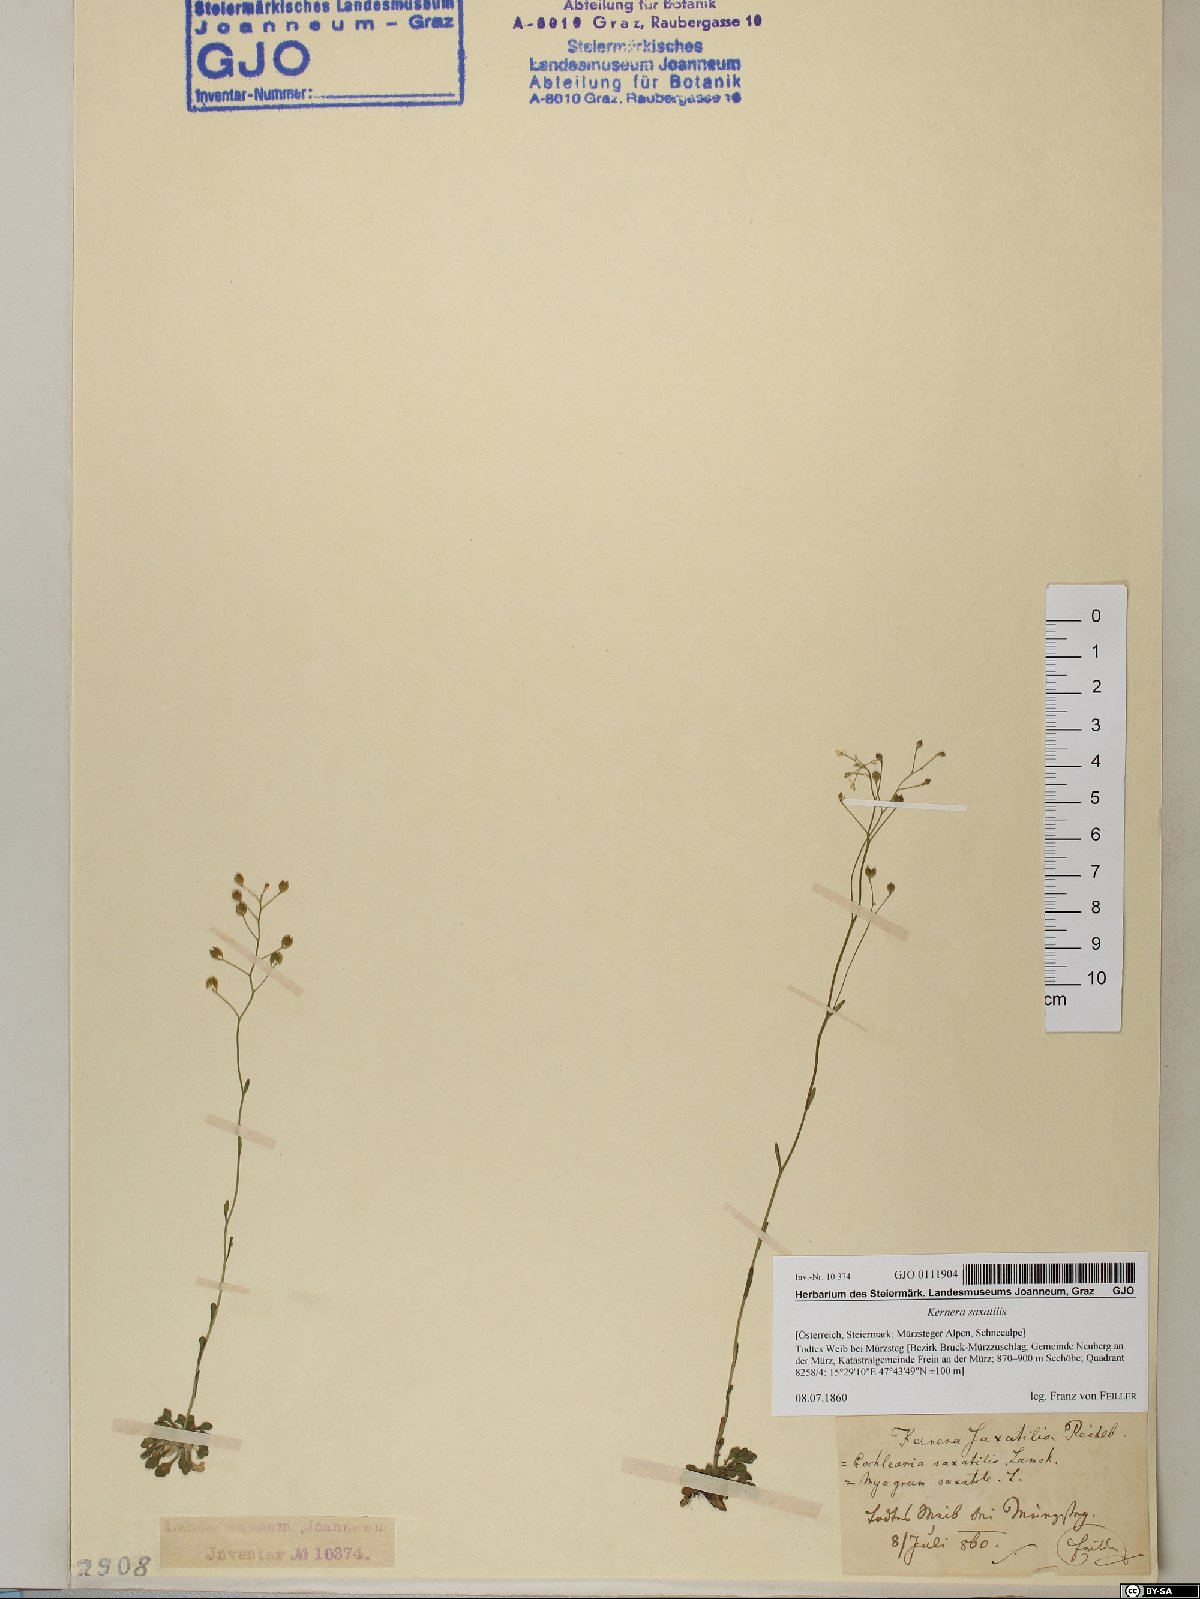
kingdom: Plantae
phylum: Tracheophyta
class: Magnoliopsida
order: Brassicales
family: Brassicaceae
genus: Kernera
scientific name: Kernera saxatilis
